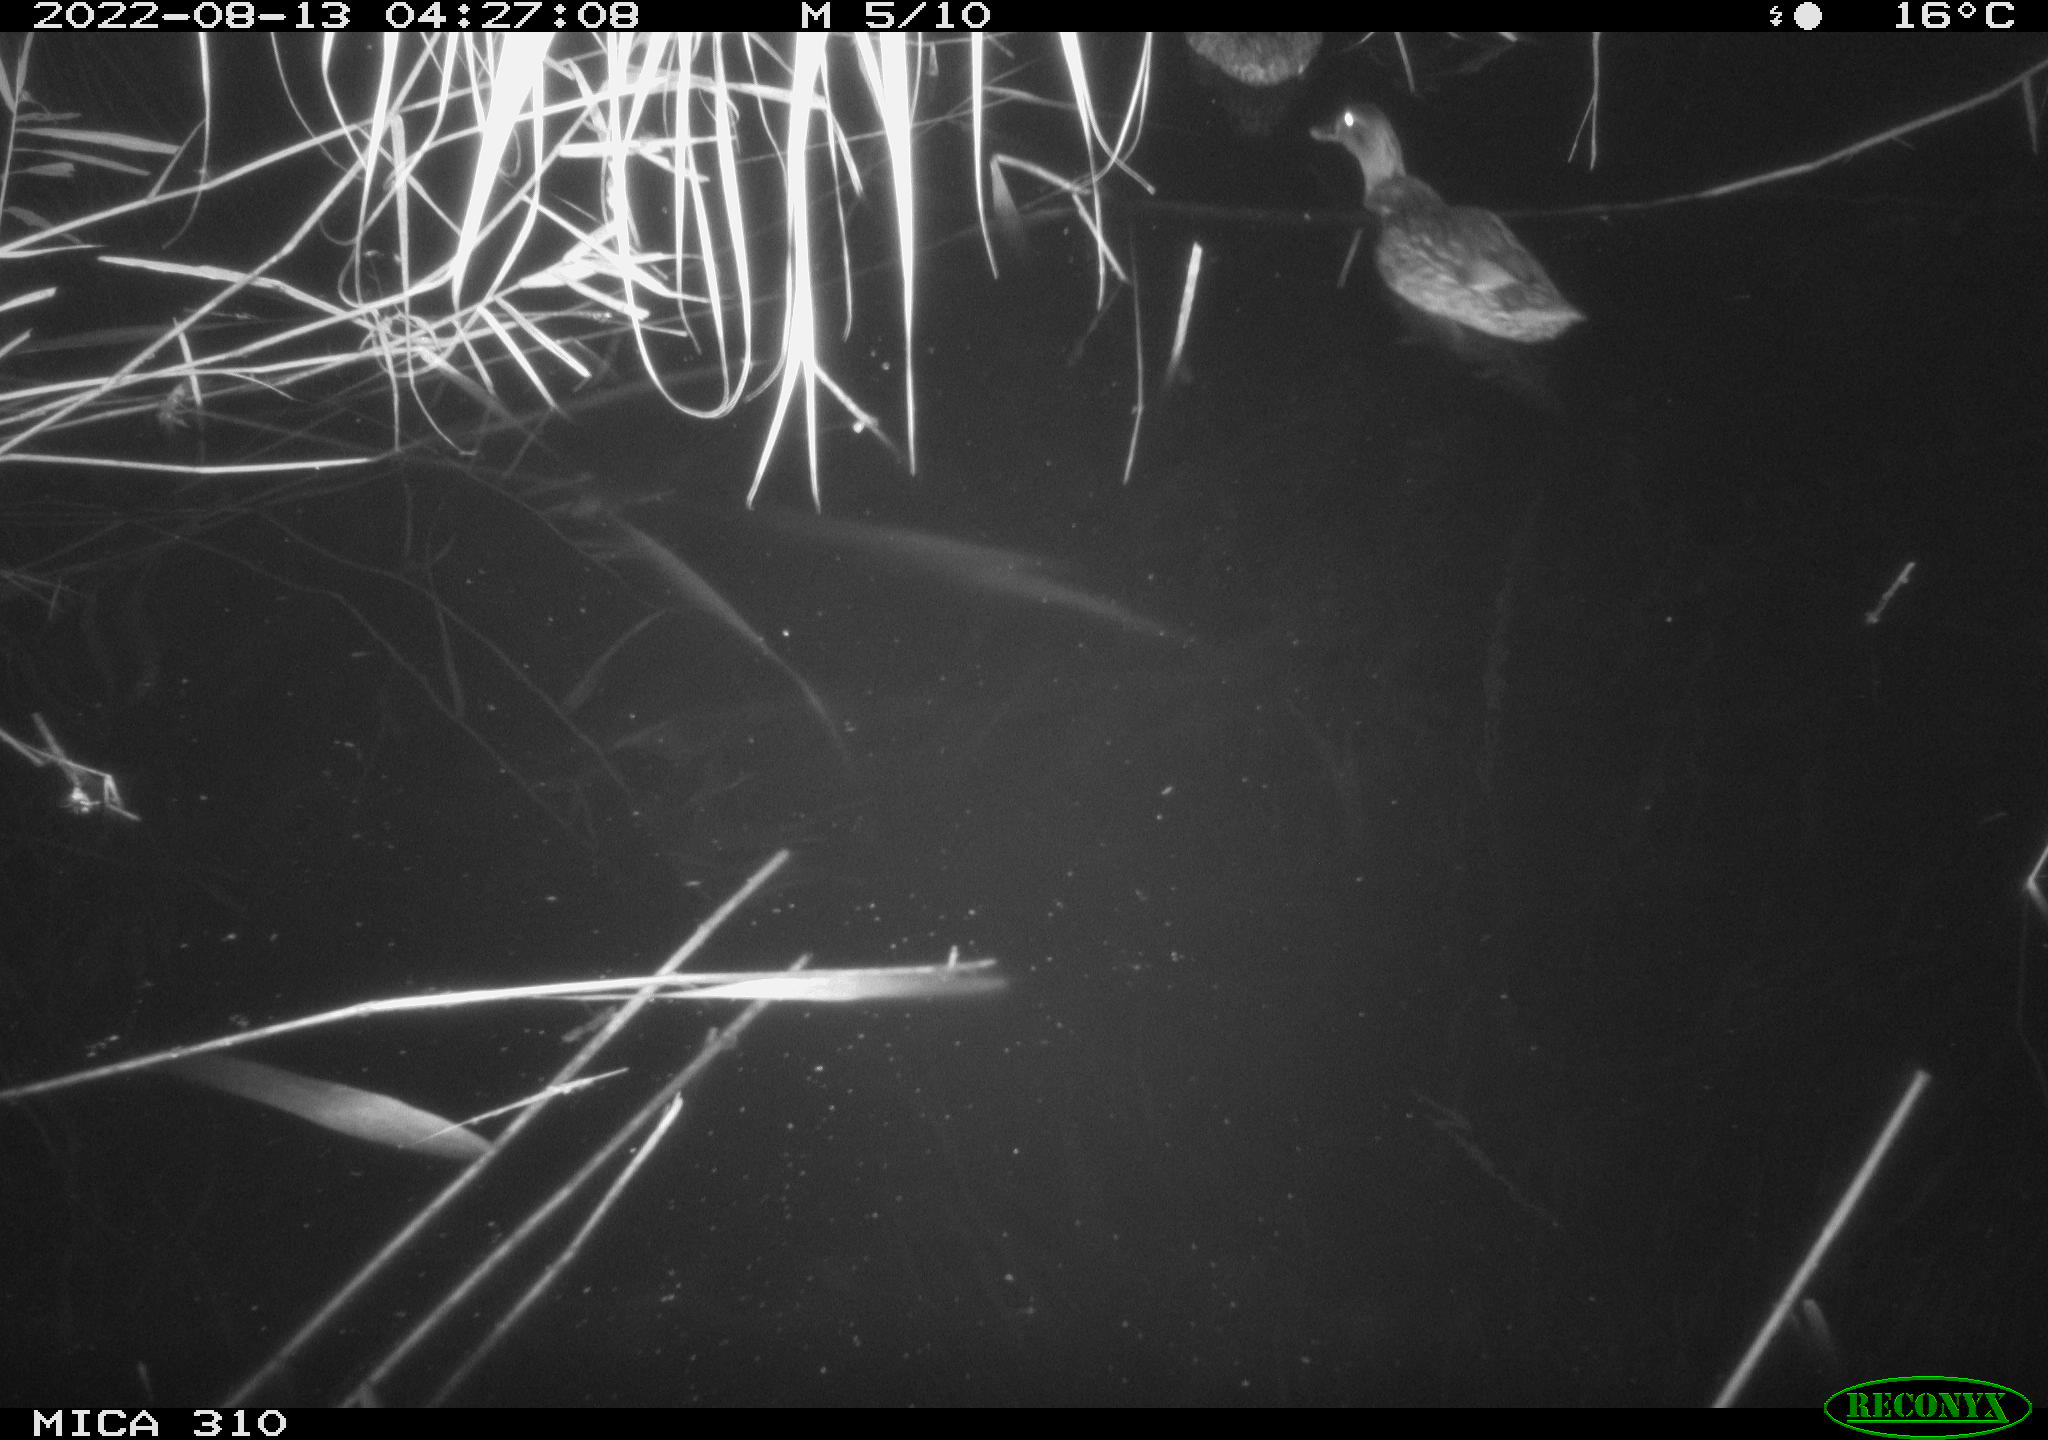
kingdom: Animalia
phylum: Chordata
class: Aves
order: Anseriformes
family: Anatidae
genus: Anas
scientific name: Anas platyrhynchos
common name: Mallard
